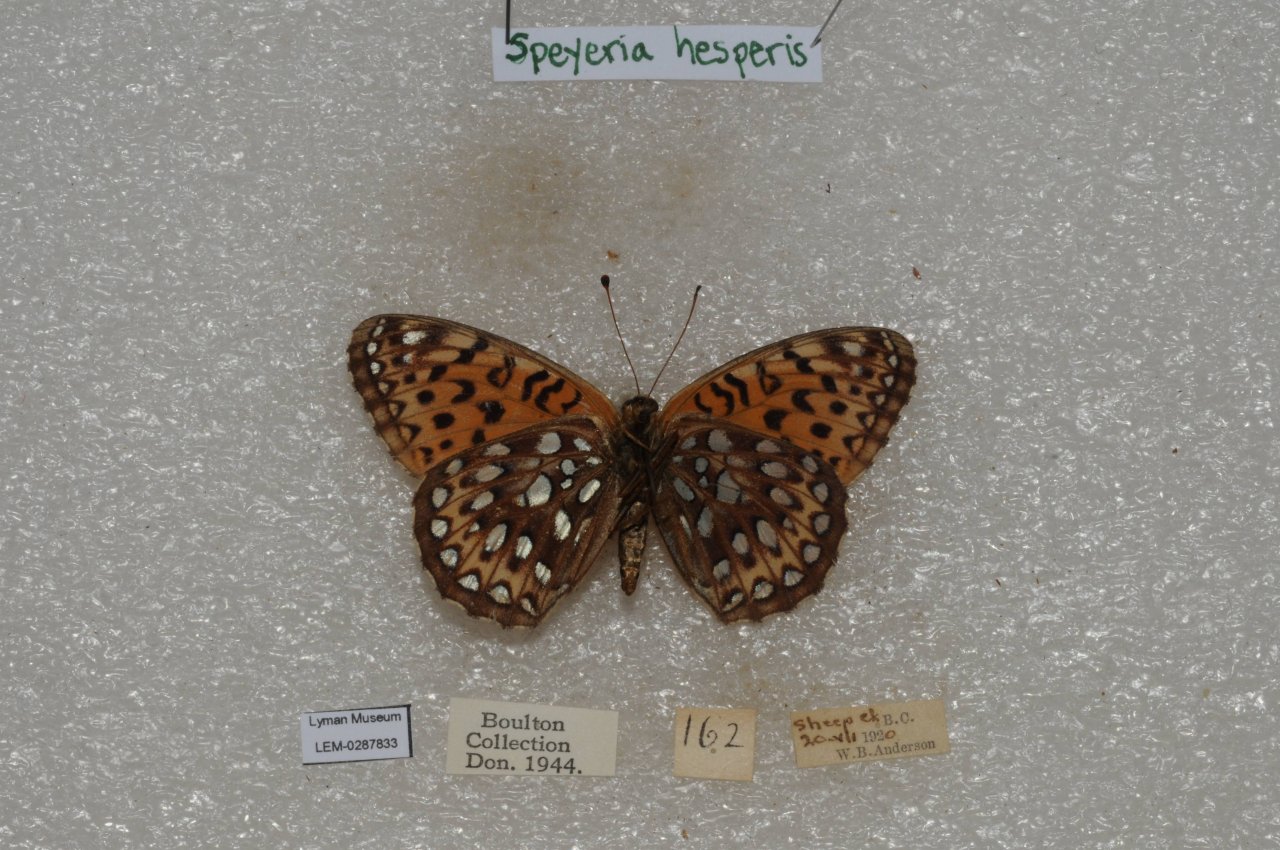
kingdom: Animalia
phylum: Arthropoda
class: Insecta
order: Lepidoptera
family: Nymphalidae
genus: Speyeria
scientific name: Speyeria atlantis
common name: Northwestern Fritillary
